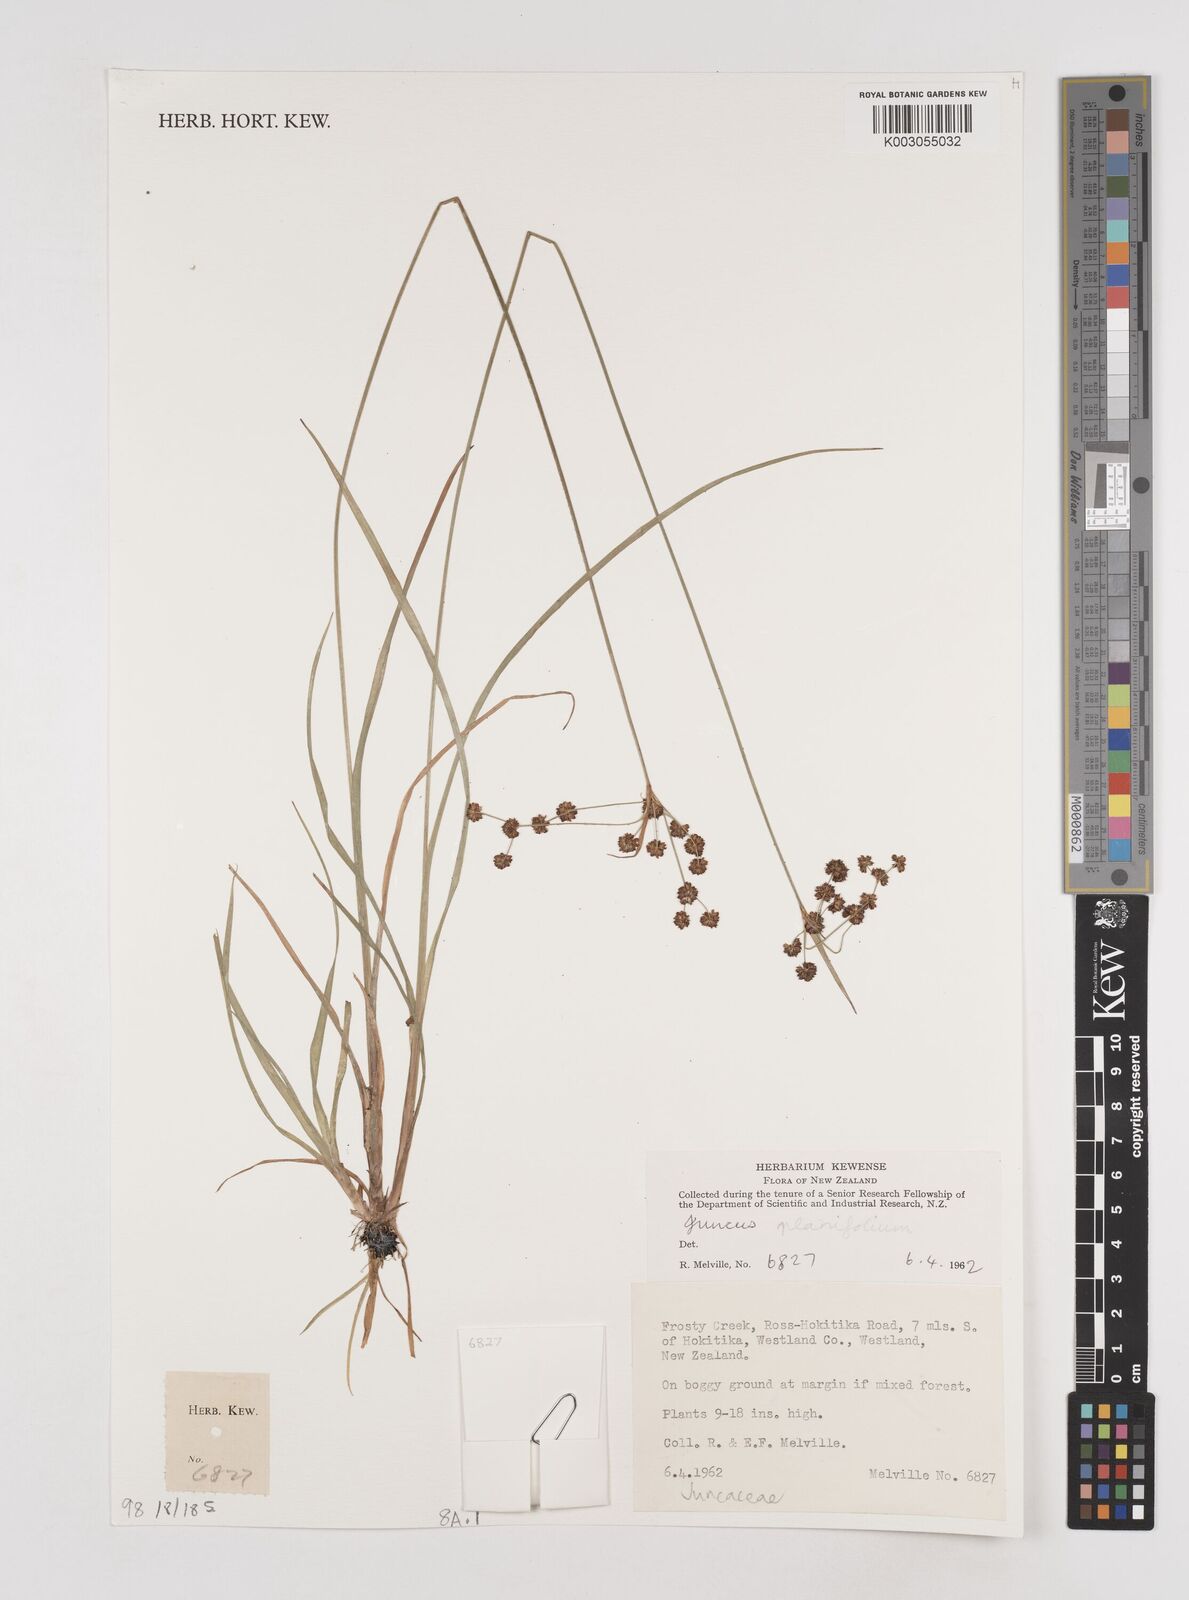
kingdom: Plantae
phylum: Tracheophyta
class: Liliopsida
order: Poales
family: Juncaceae
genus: Juncus
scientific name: Juncus planifolius
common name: Broadleaf rush
